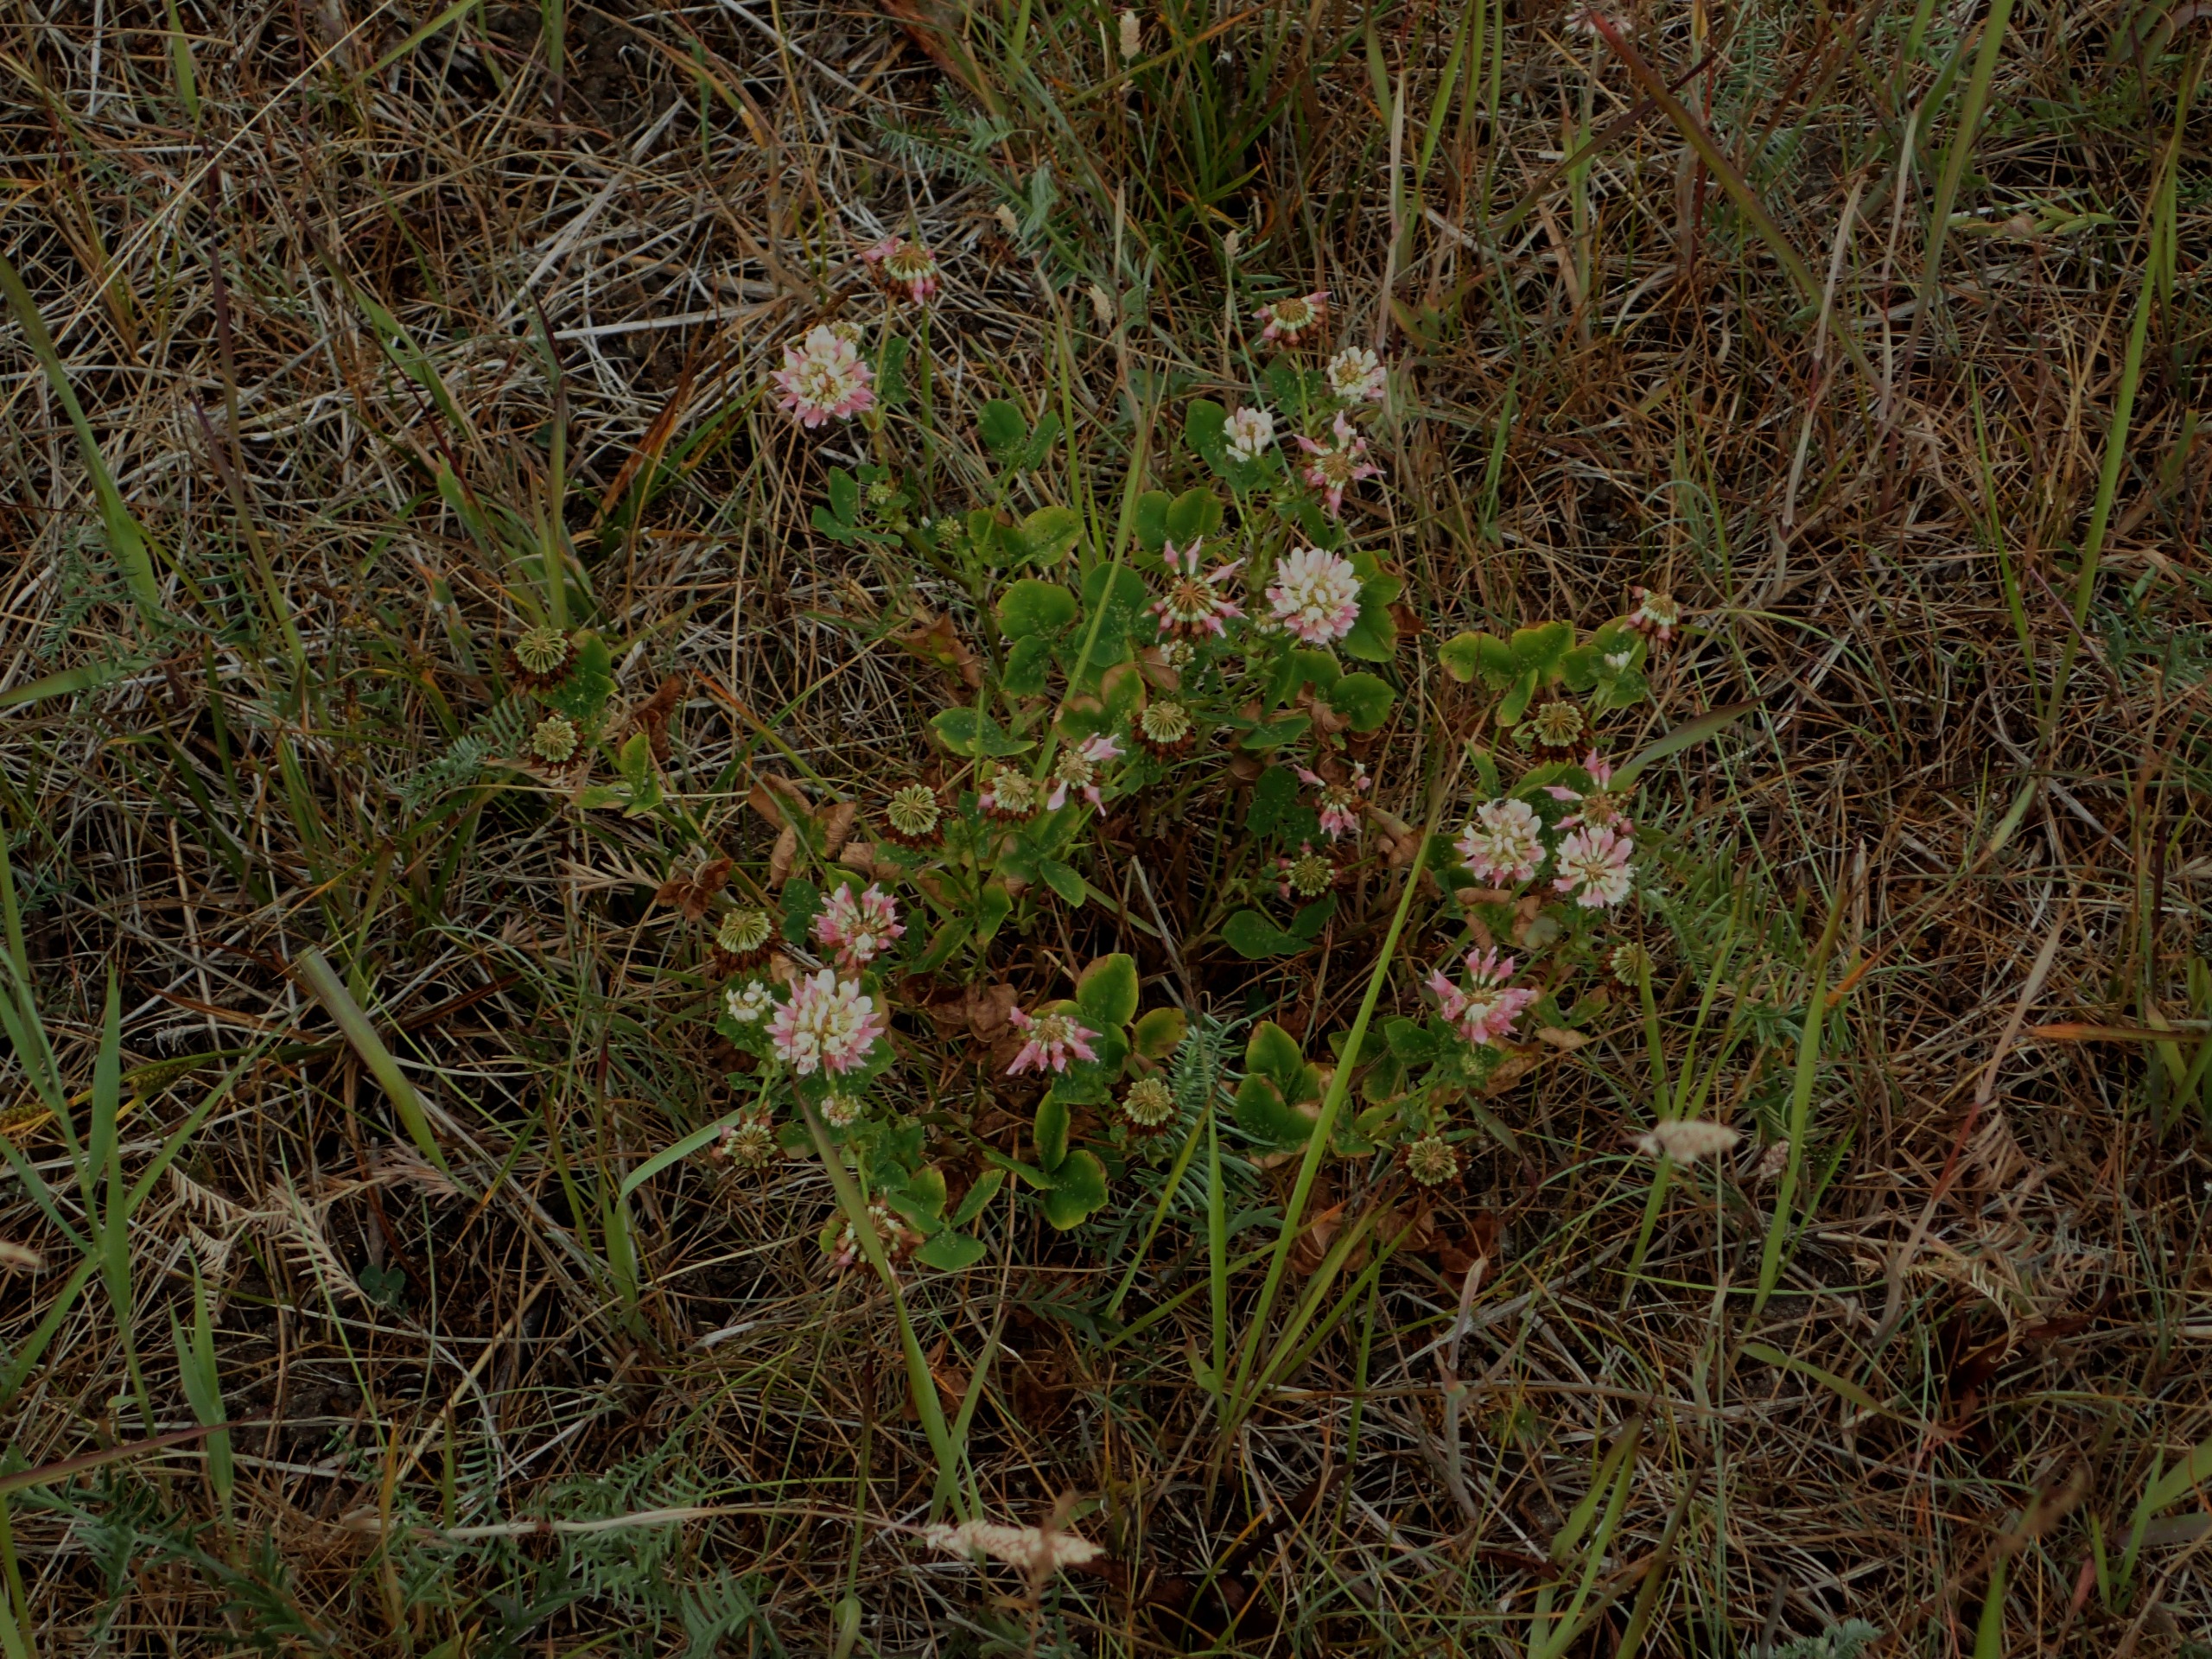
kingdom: Plantae
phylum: Tracheophyta
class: Magnoliopsida
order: Fabales
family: Fabaceae
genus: Trifolium
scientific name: Trifolium hybridum
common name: Alsike-kløver
